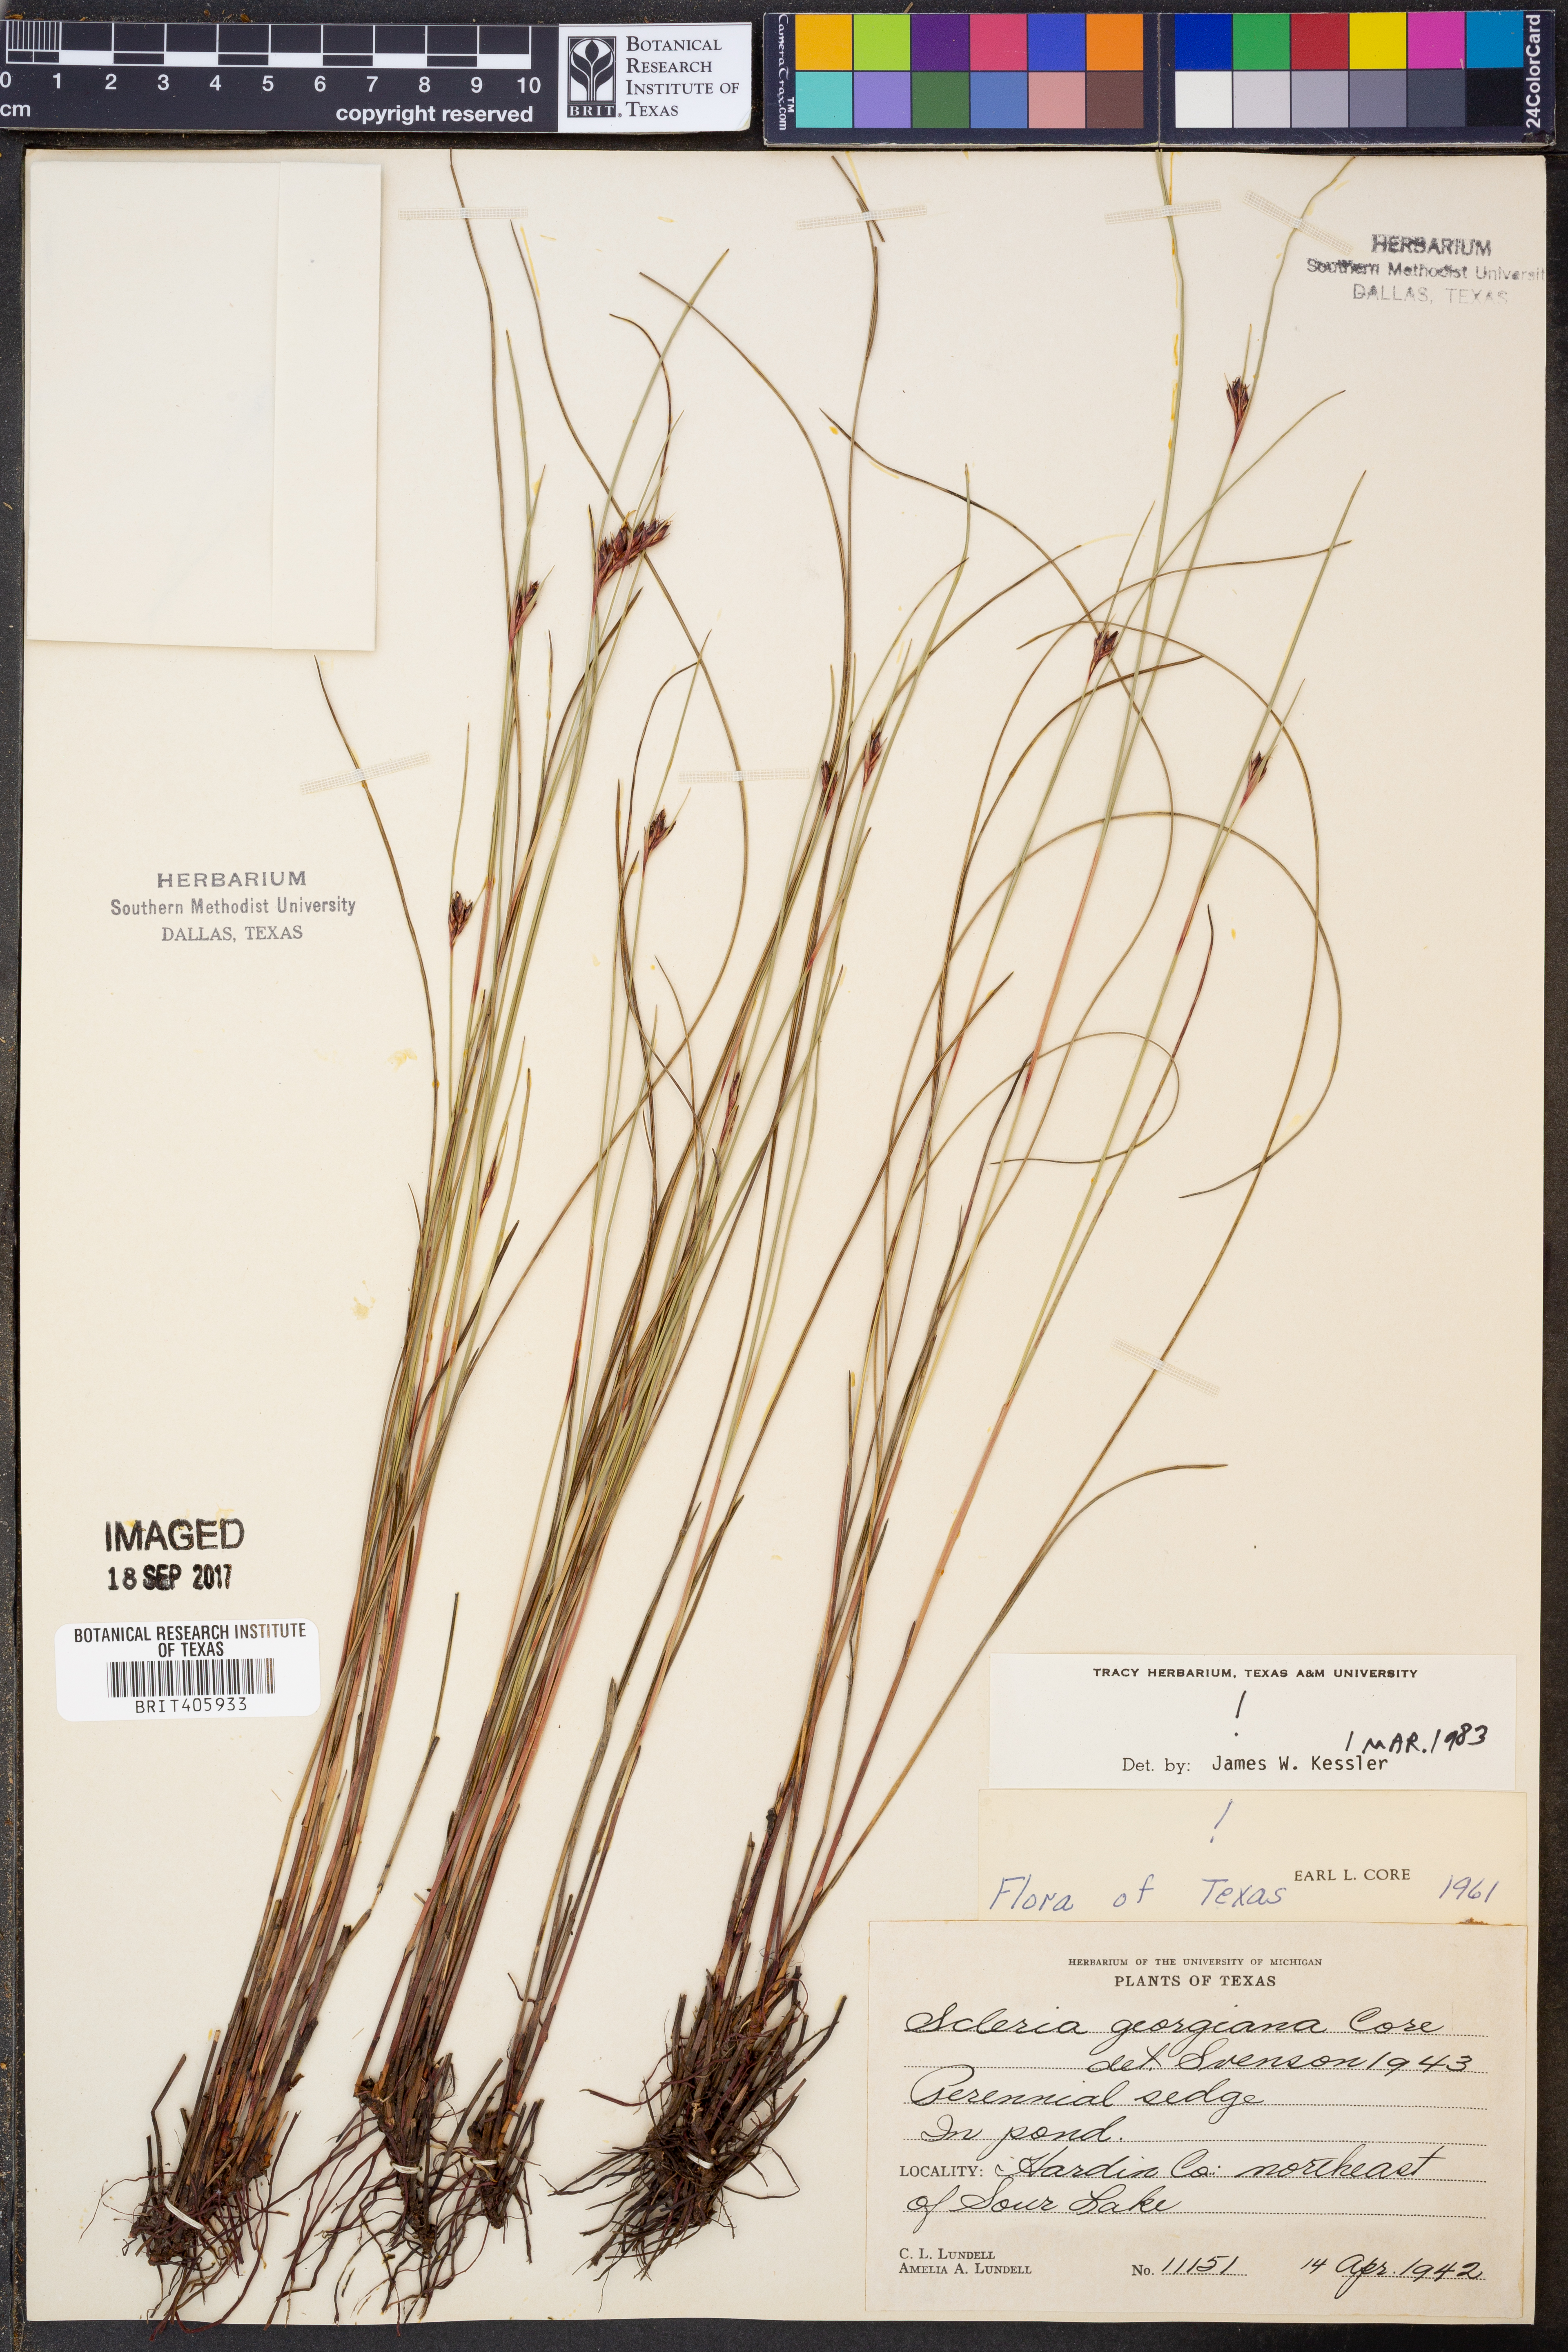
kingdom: Plantae
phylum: Tracheophyta
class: Liliopsida
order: Poales
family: Cyperaceae
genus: Scleria
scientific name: Scleria georgiana
